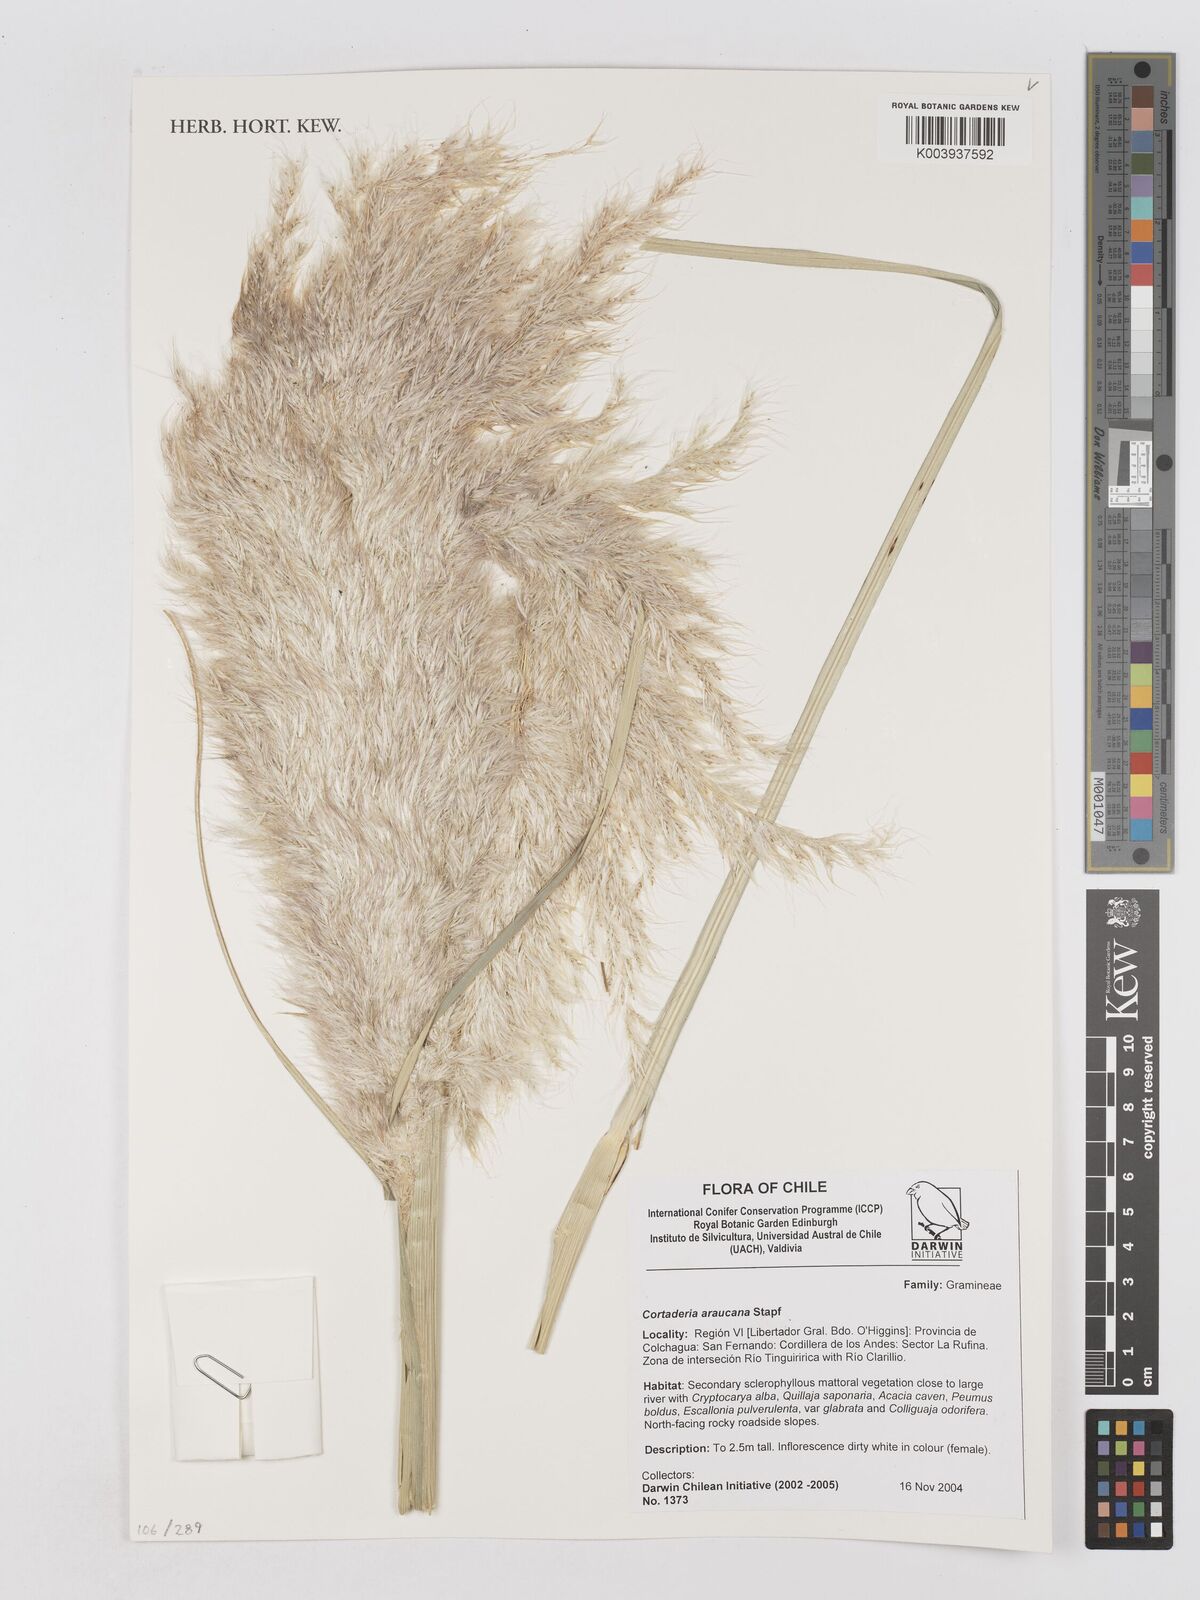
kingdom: Plantae
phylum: Tracheophyta
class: Liliopsida
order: Poales
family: Poaceae
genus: Cortaderia
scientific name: Cortaderia araucana
